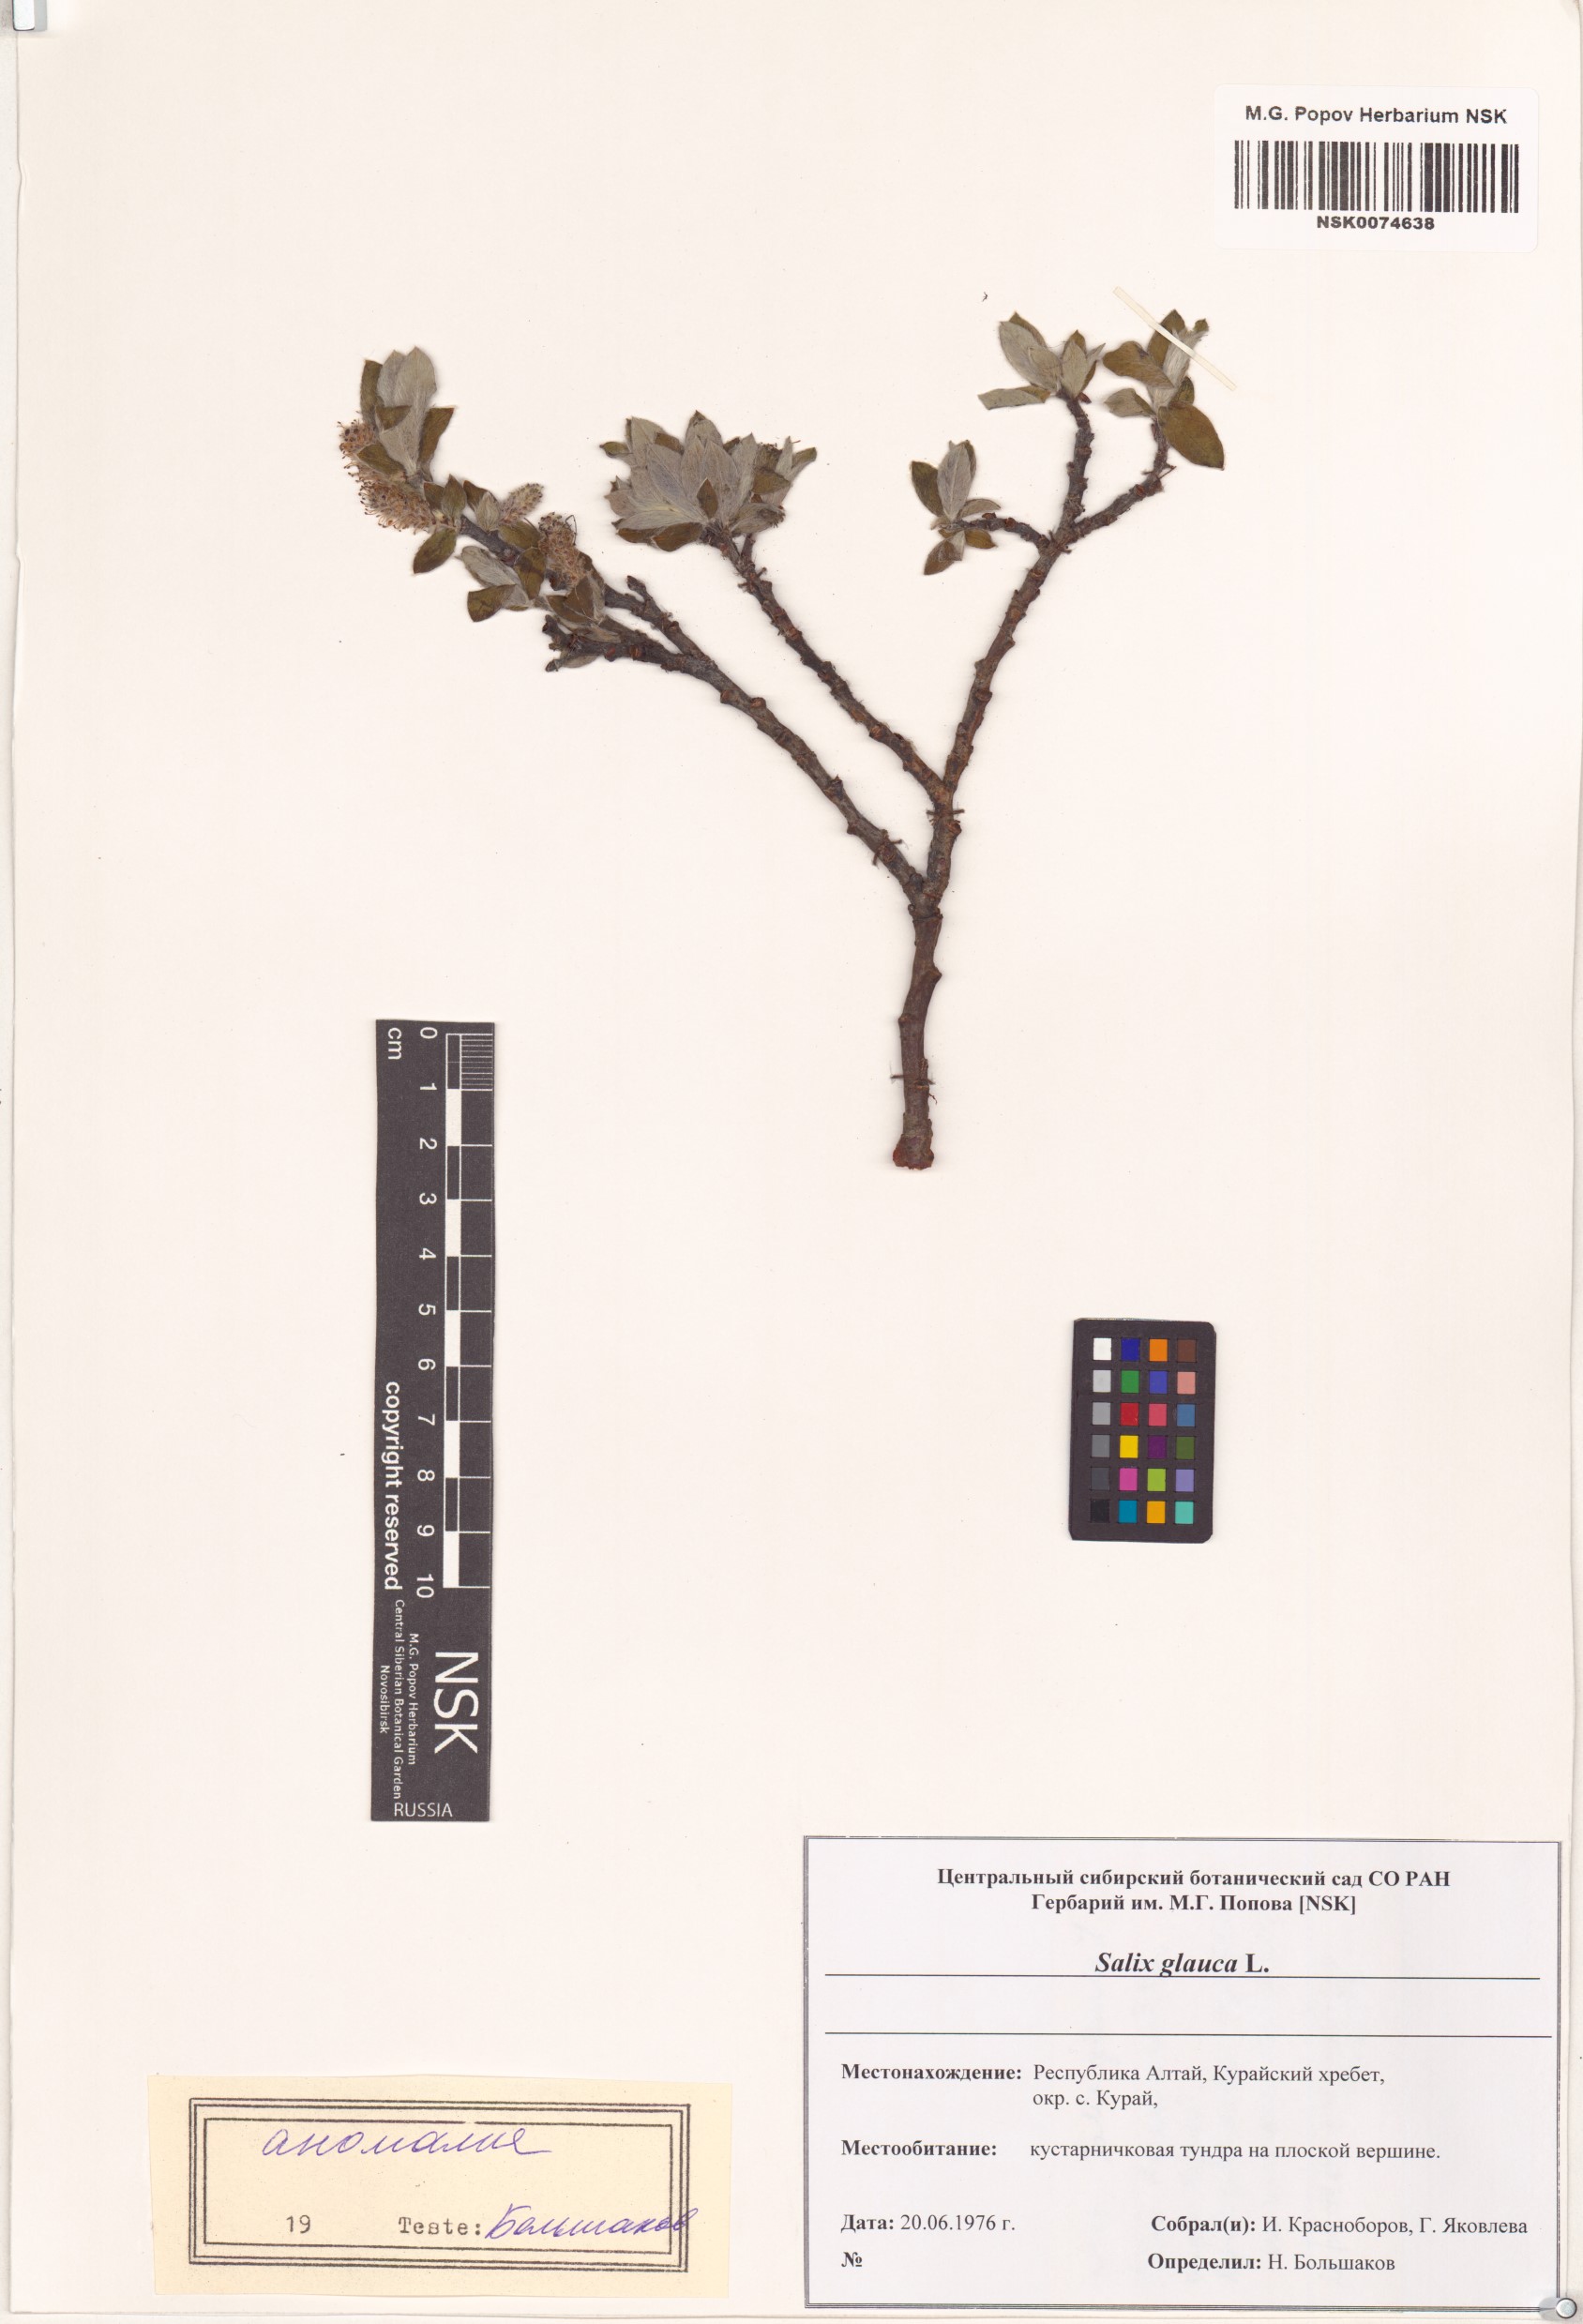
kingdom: Plantae
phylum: Tracheophyta
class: Magnoliopsida
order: Malpighiales
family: Salicaceae
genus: Salix
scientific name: Salix glauca
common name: Glaucous willow
